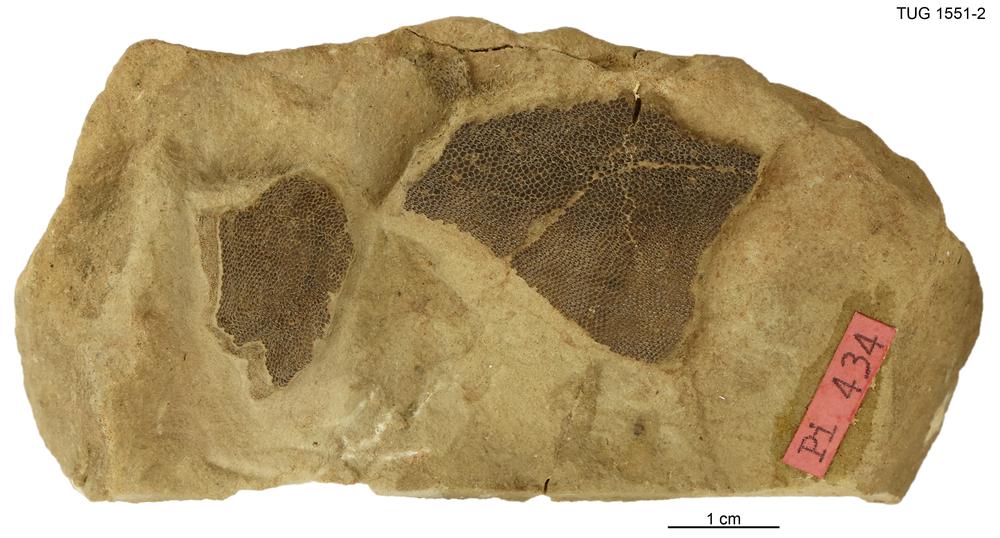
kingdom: Animalia
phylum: Chordata
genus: Schizosteus
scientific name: Schizosteus
